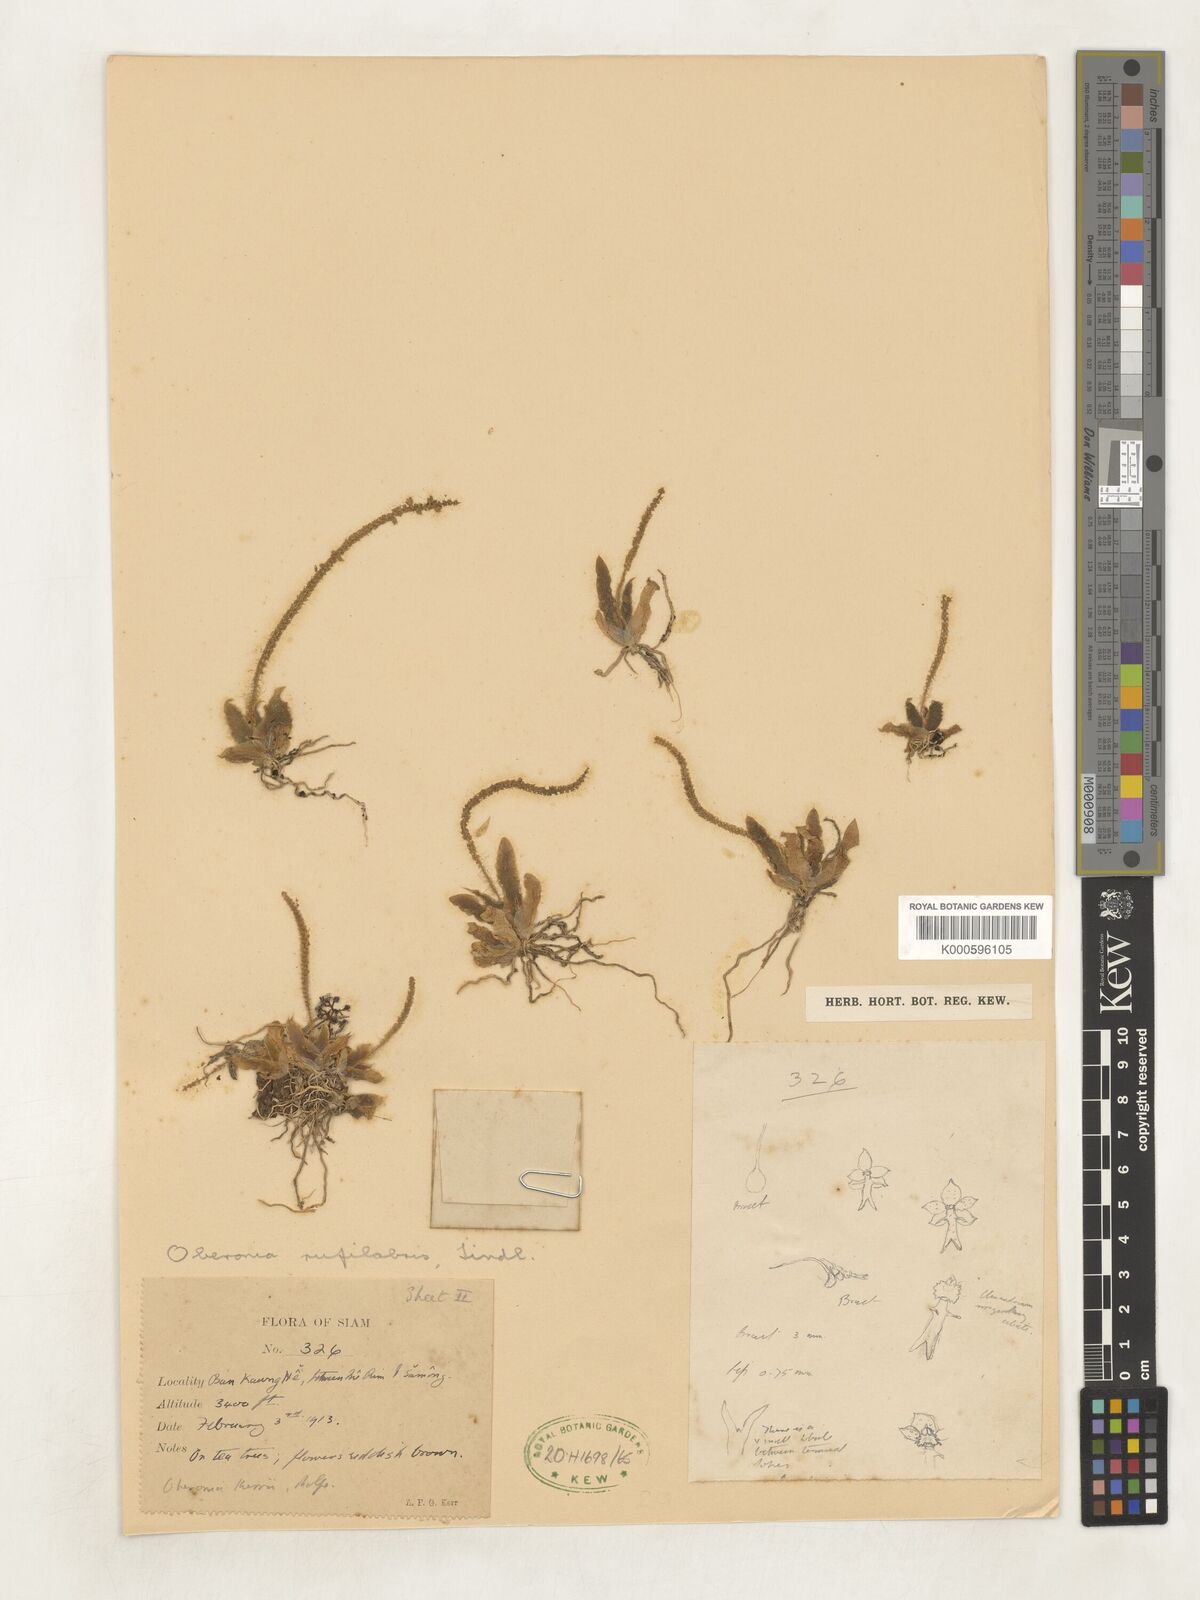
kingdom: Plantae
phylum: Tracheophyta
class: Liliopsida
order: Asparagales
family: Orchidaceae
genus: Oberonia
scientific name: Oberonia rufilabris
